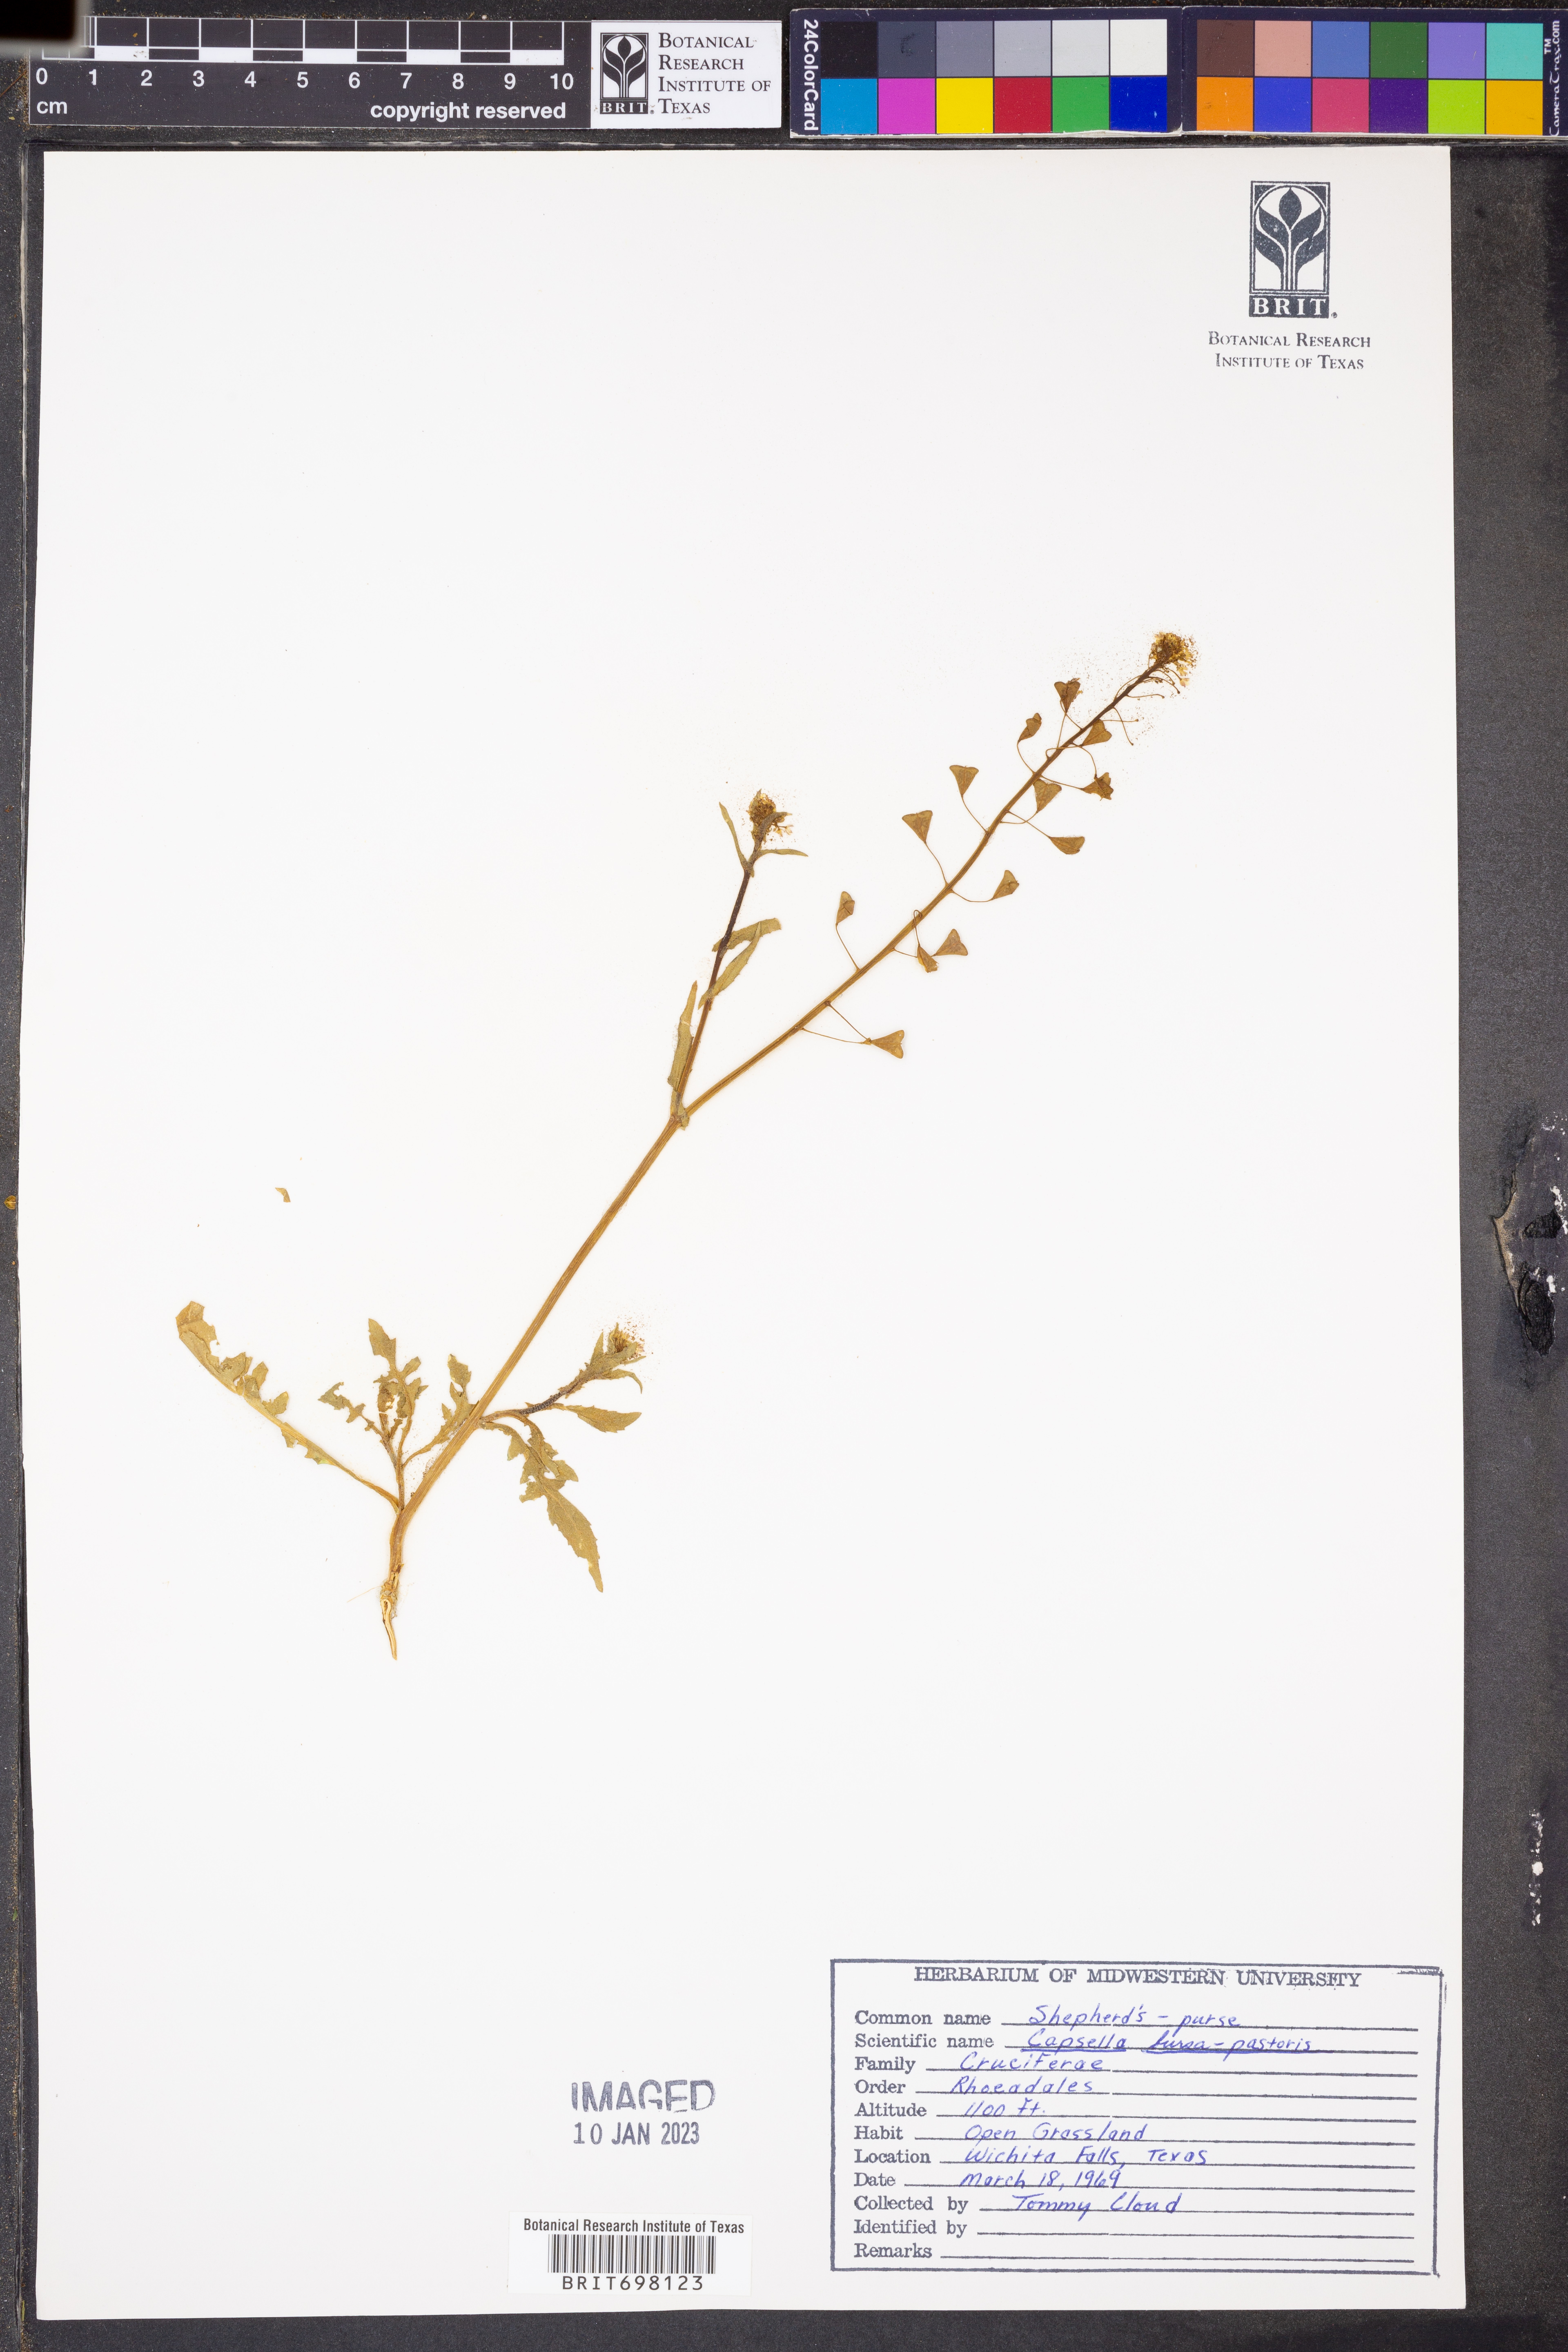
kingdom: Plantae
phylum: Tracheophyta
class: Magnoliopsida
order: Brassicales
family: Brassicaceae
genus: Capsella
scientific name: Capsella bursa-pastoris
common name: Shepherd's purse
